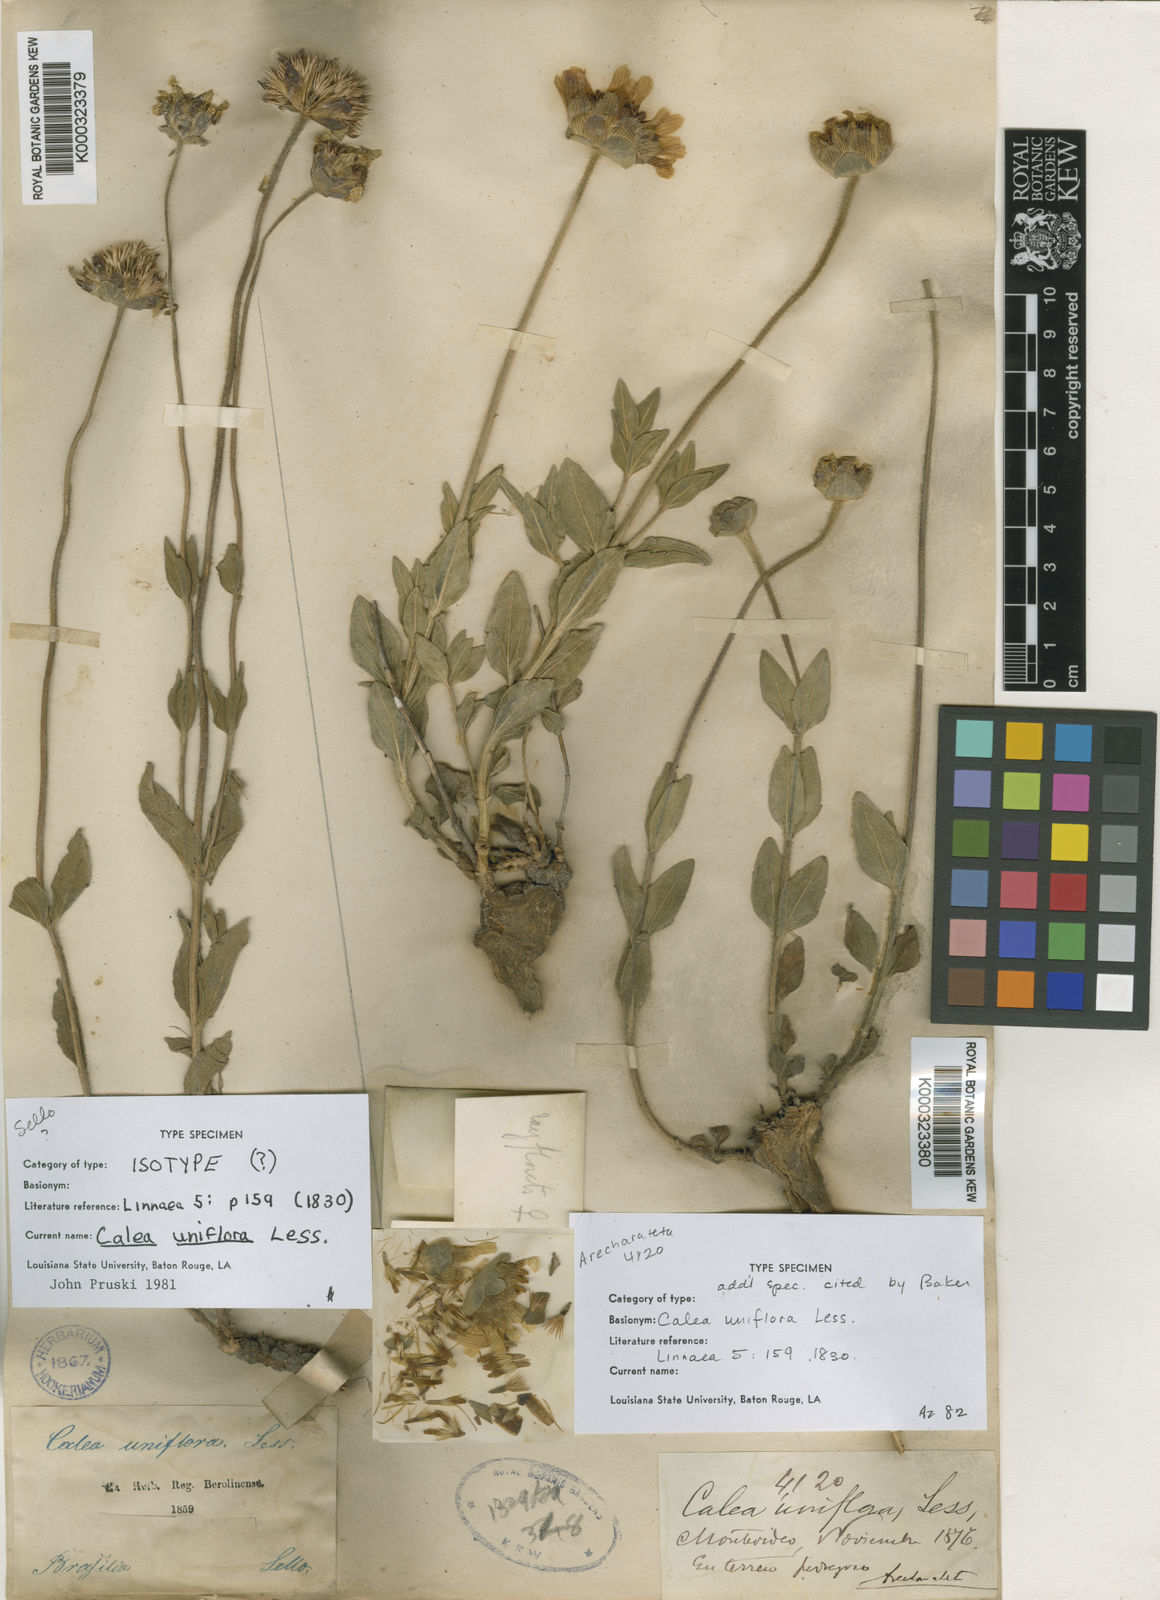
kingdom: Plantae
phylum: Tracheophyta
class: Magnoliopsida
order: Asterales
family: Asteraceae
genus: Calea
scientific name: Calea uniflora
